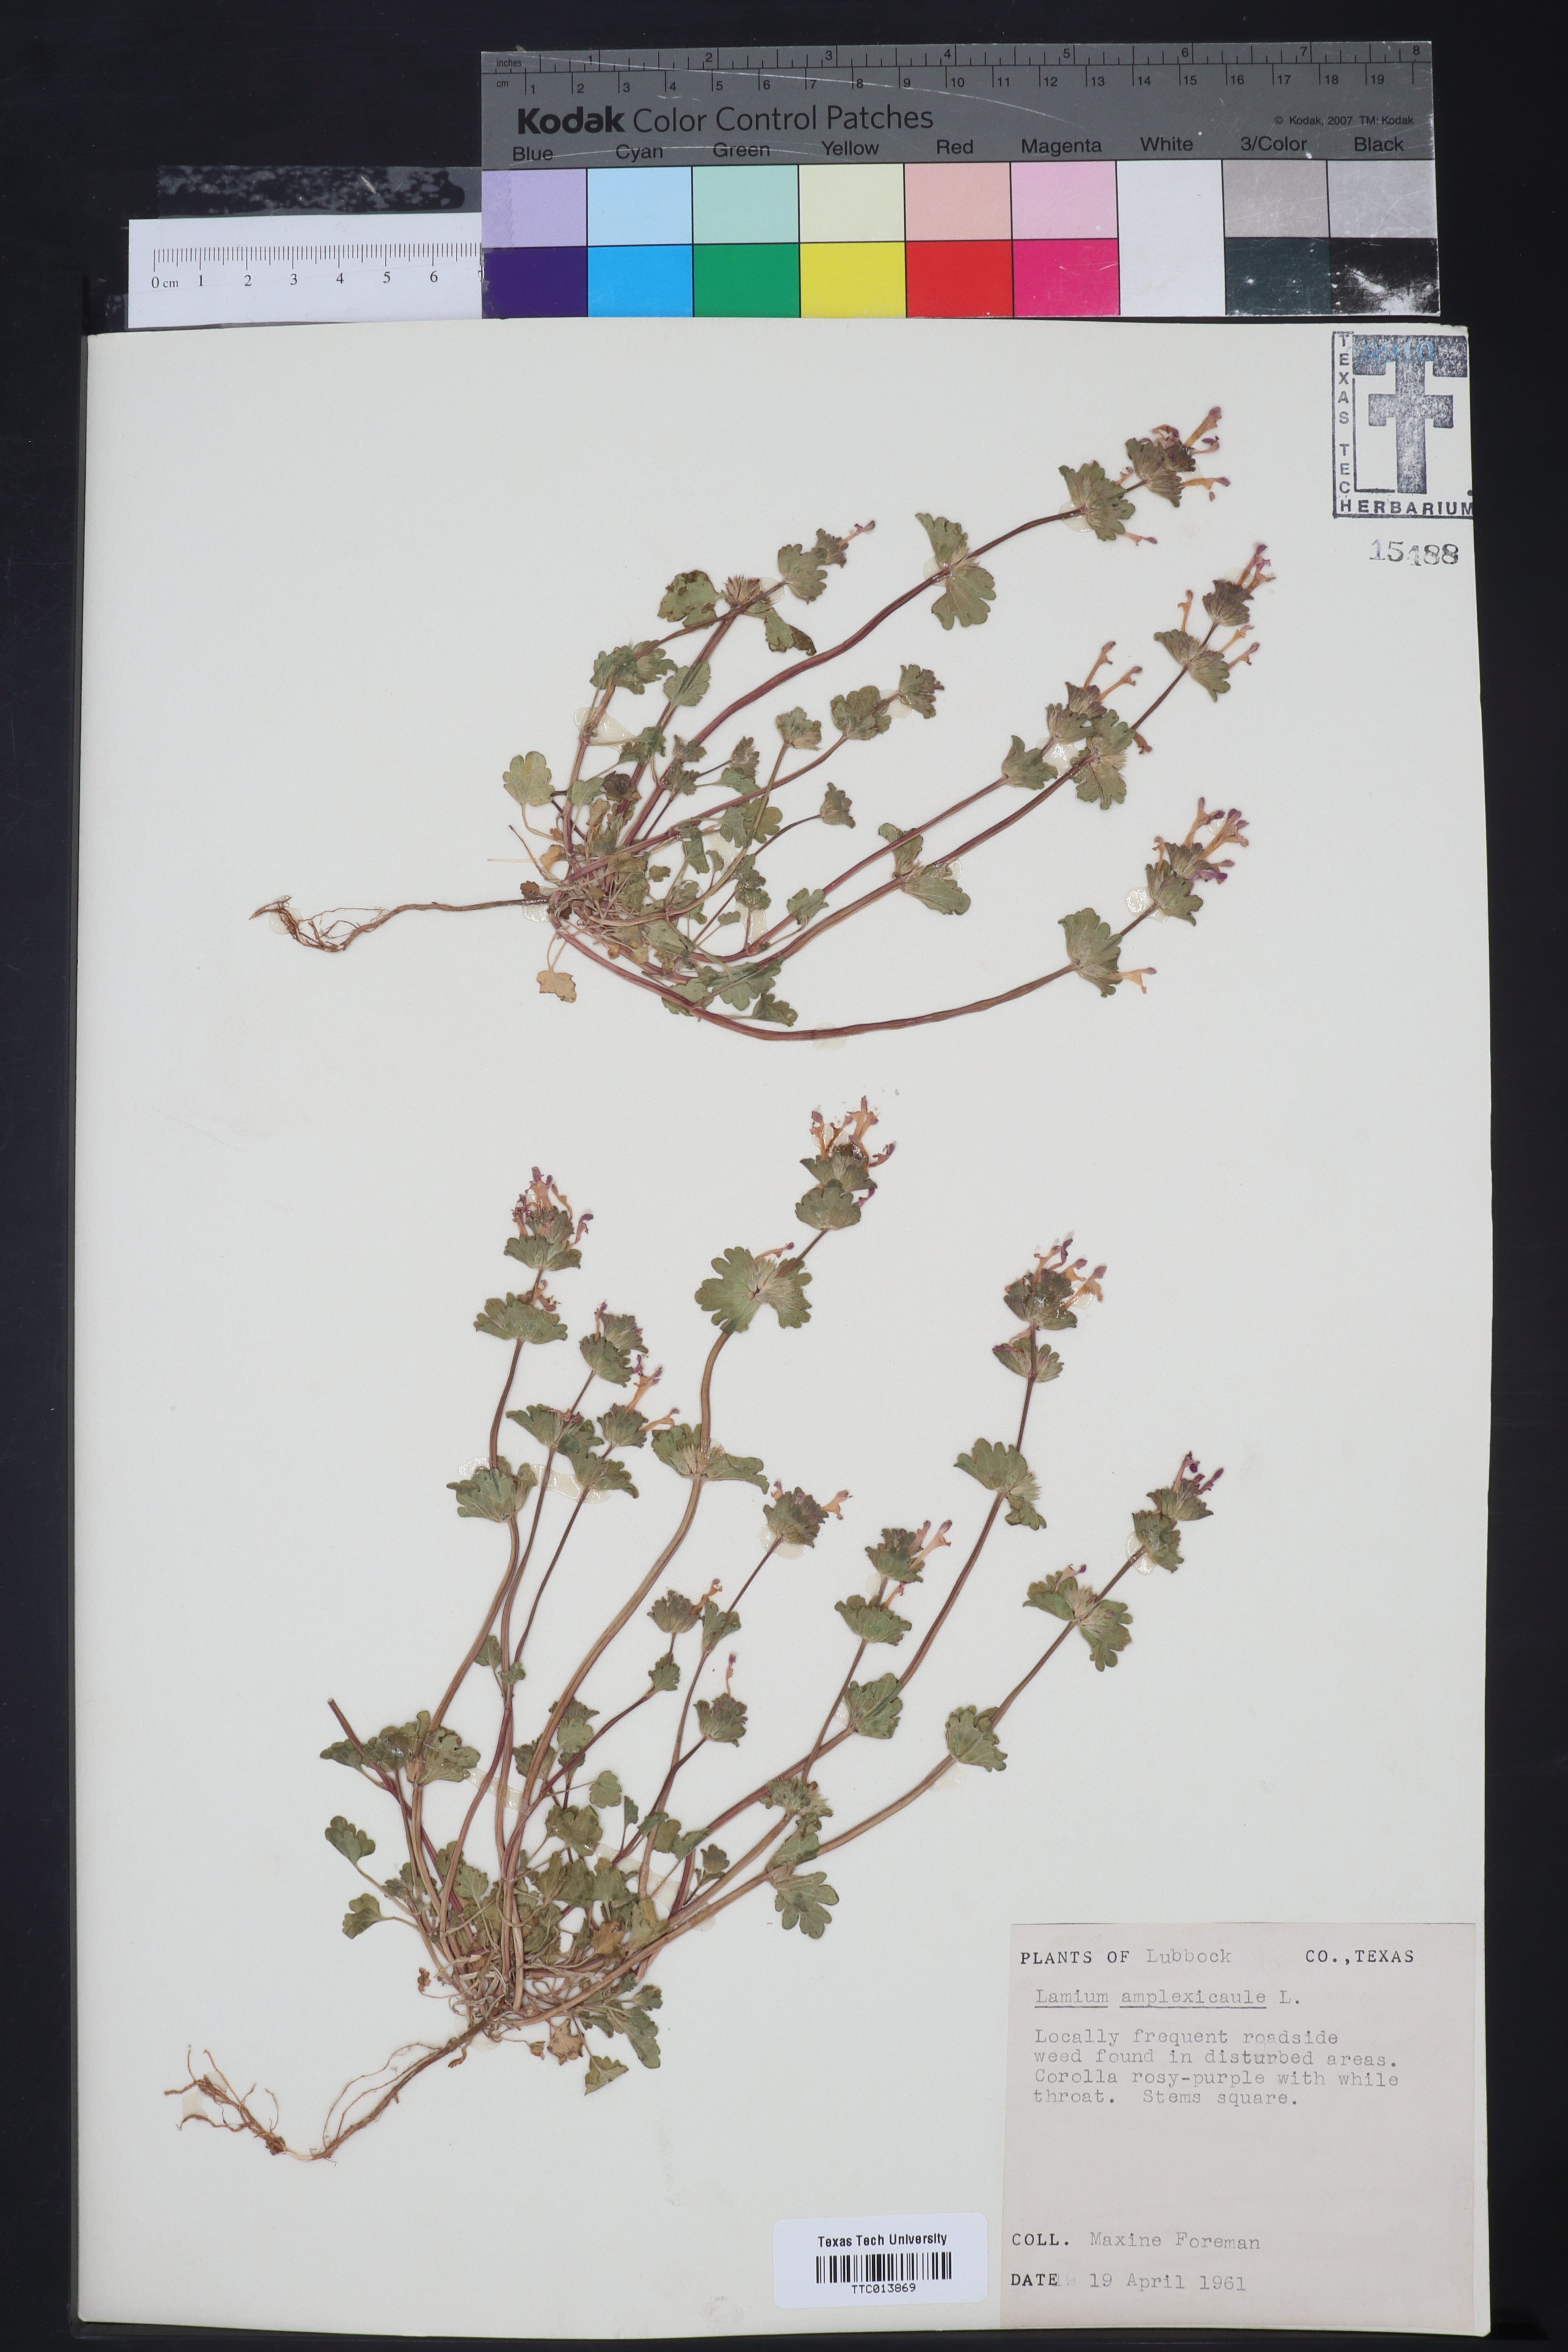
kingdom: Plantae
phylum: Tracheophyta
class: Magnoliopsida
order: Lamiales
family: Lamiaceae
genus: Lamium
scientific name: Lamium amplexicaule
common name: Henbit dead-nettle
